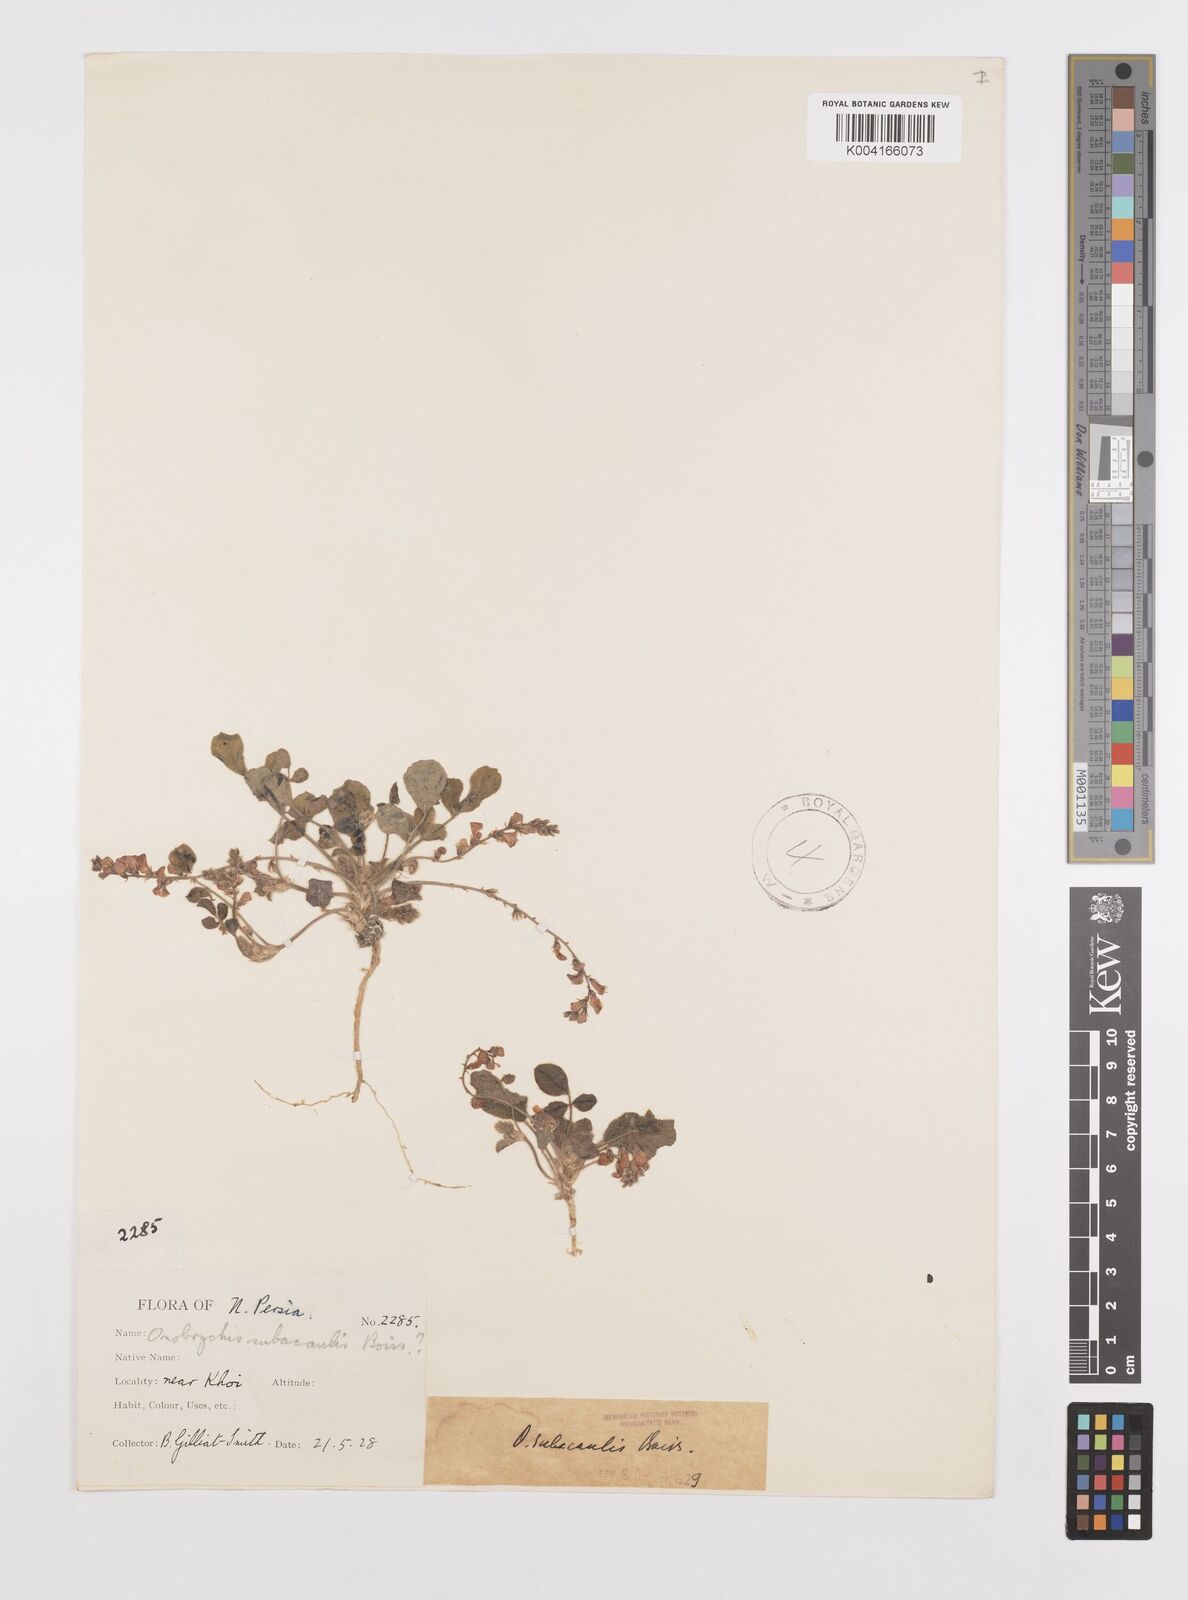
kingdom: Plantae
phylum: Tracheophyta
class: Magnoliopsida
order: Fabales
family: Fabaceae
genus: Onobrychis
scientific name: Onobrychis subacaulis
